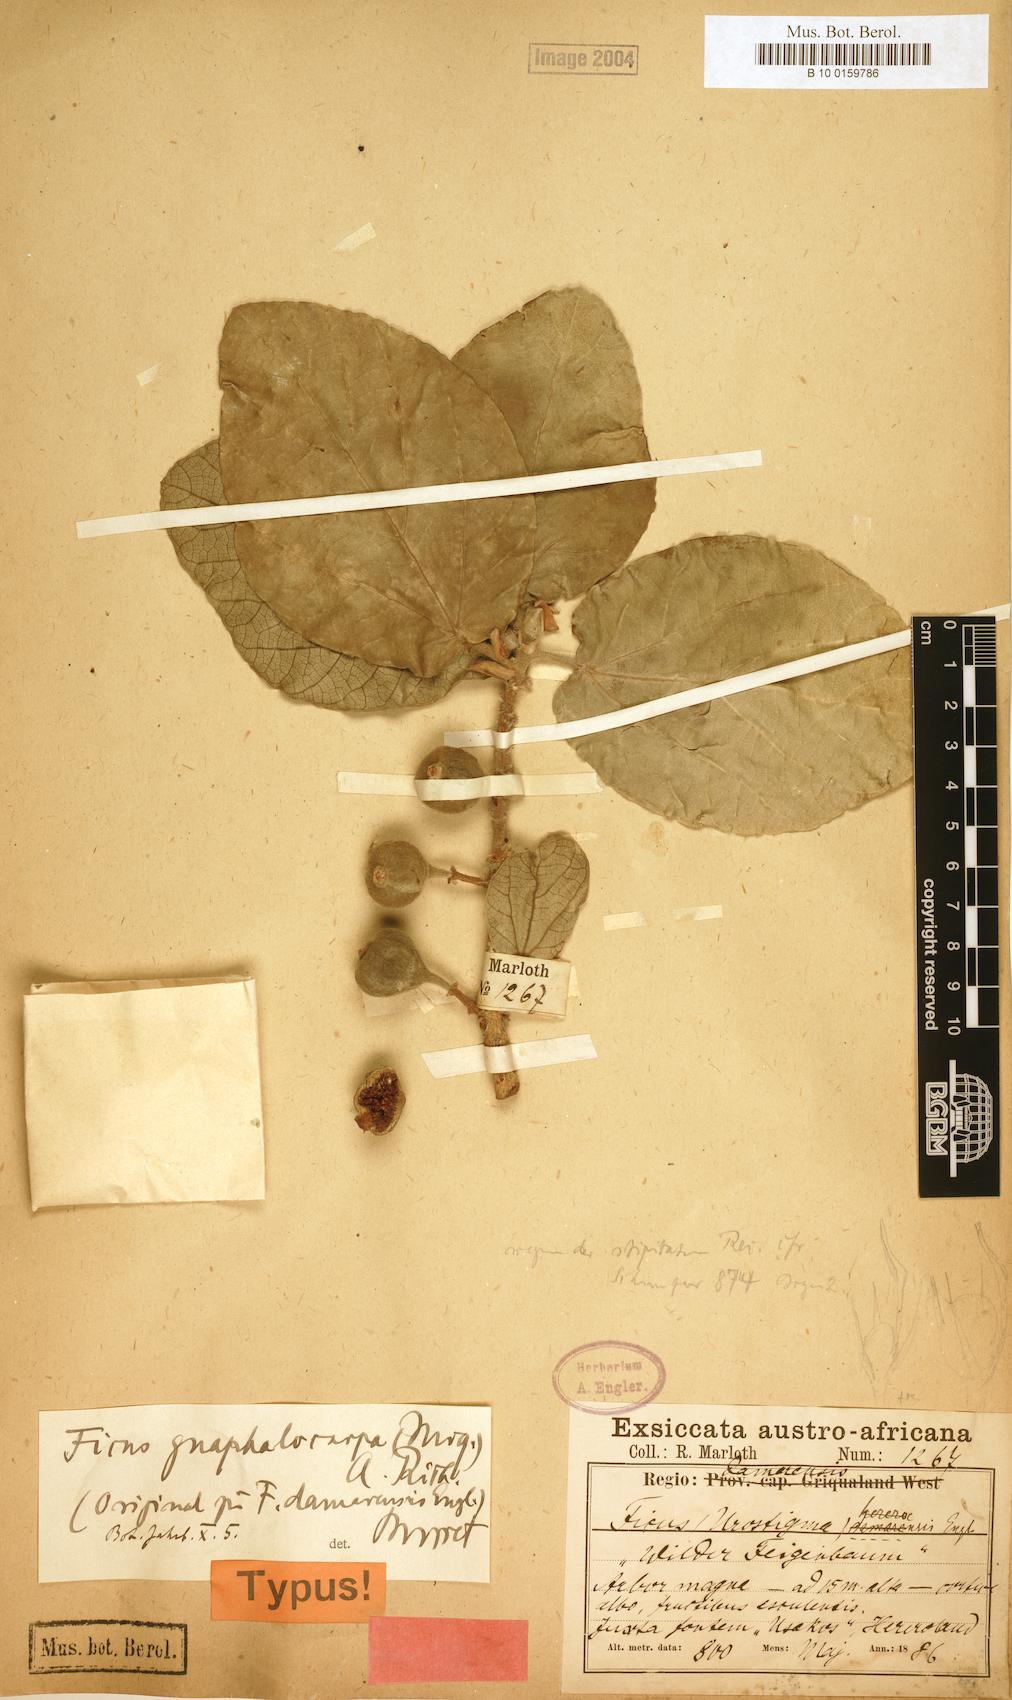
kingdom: Plantae
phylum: Tracheophyta
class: Magnoliopsida
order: Rosales
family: Moraceae
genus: Ficus
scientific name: Ficus sycomorus
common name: Sycomore
